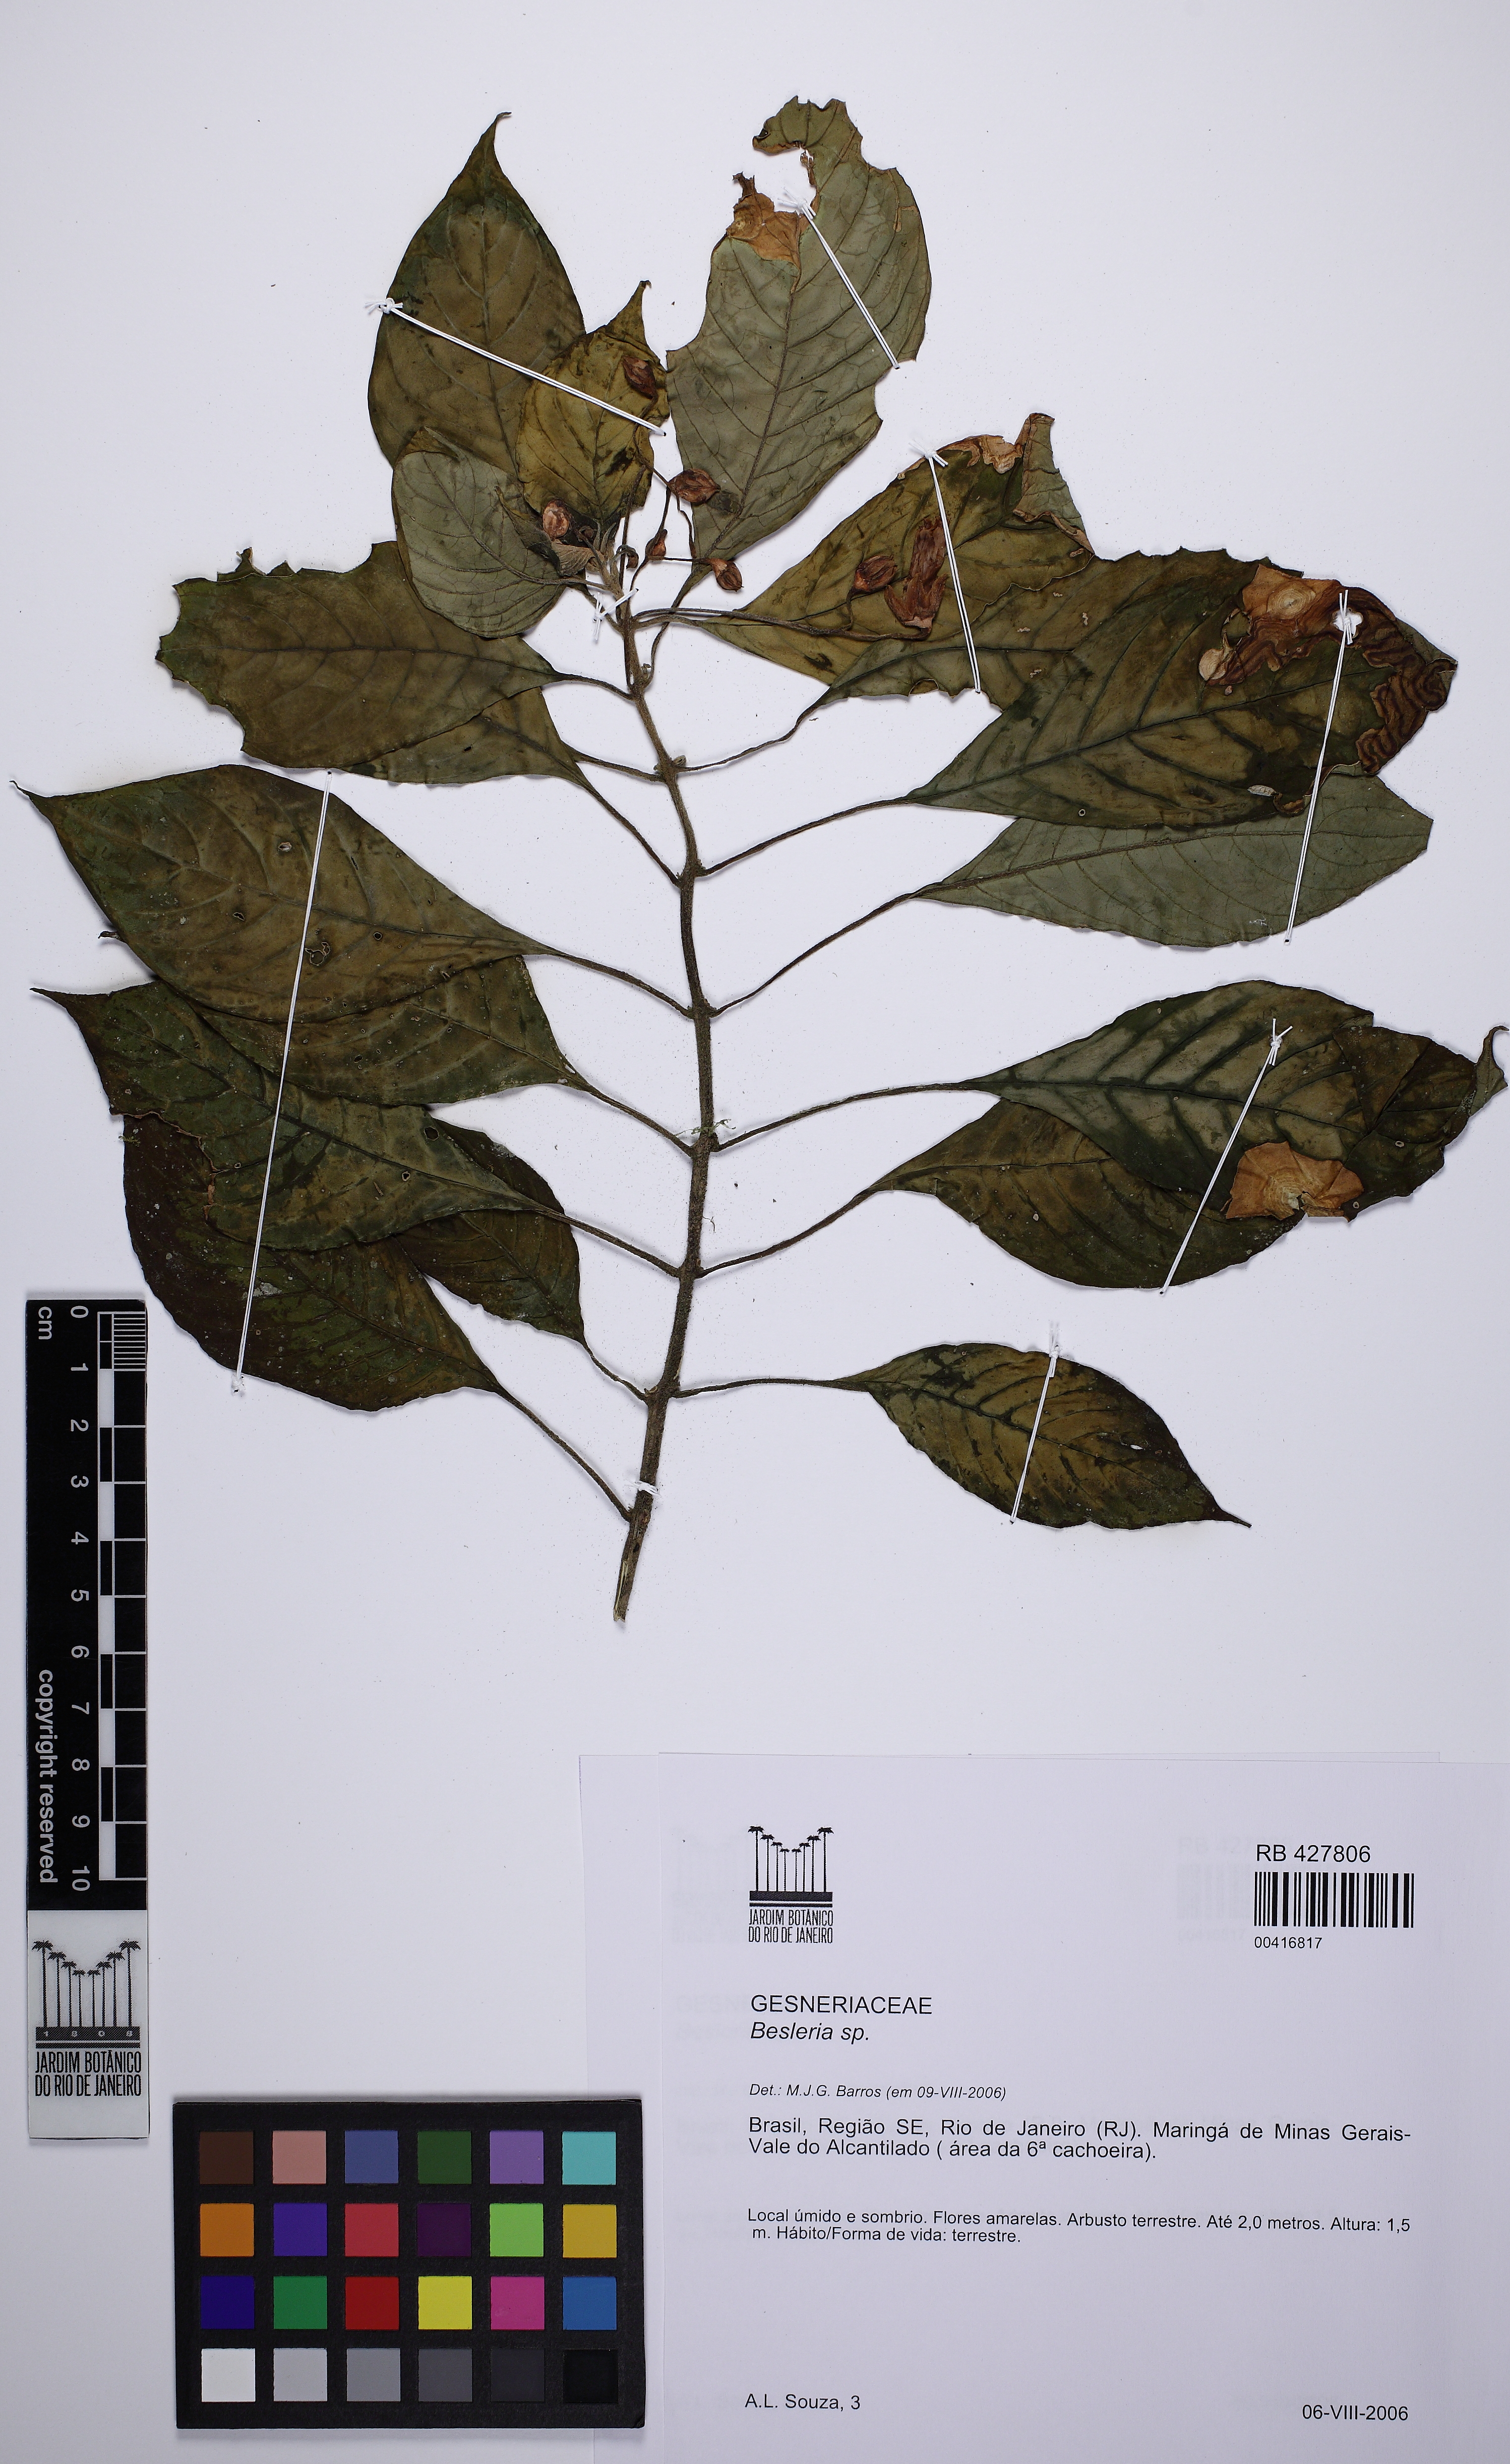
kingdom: Plantae
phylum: Tracheophyta
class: Magnoliopsida
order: Lamiales
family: Gesneriaceae
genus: Besleria
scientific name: Besleria laxiflora
